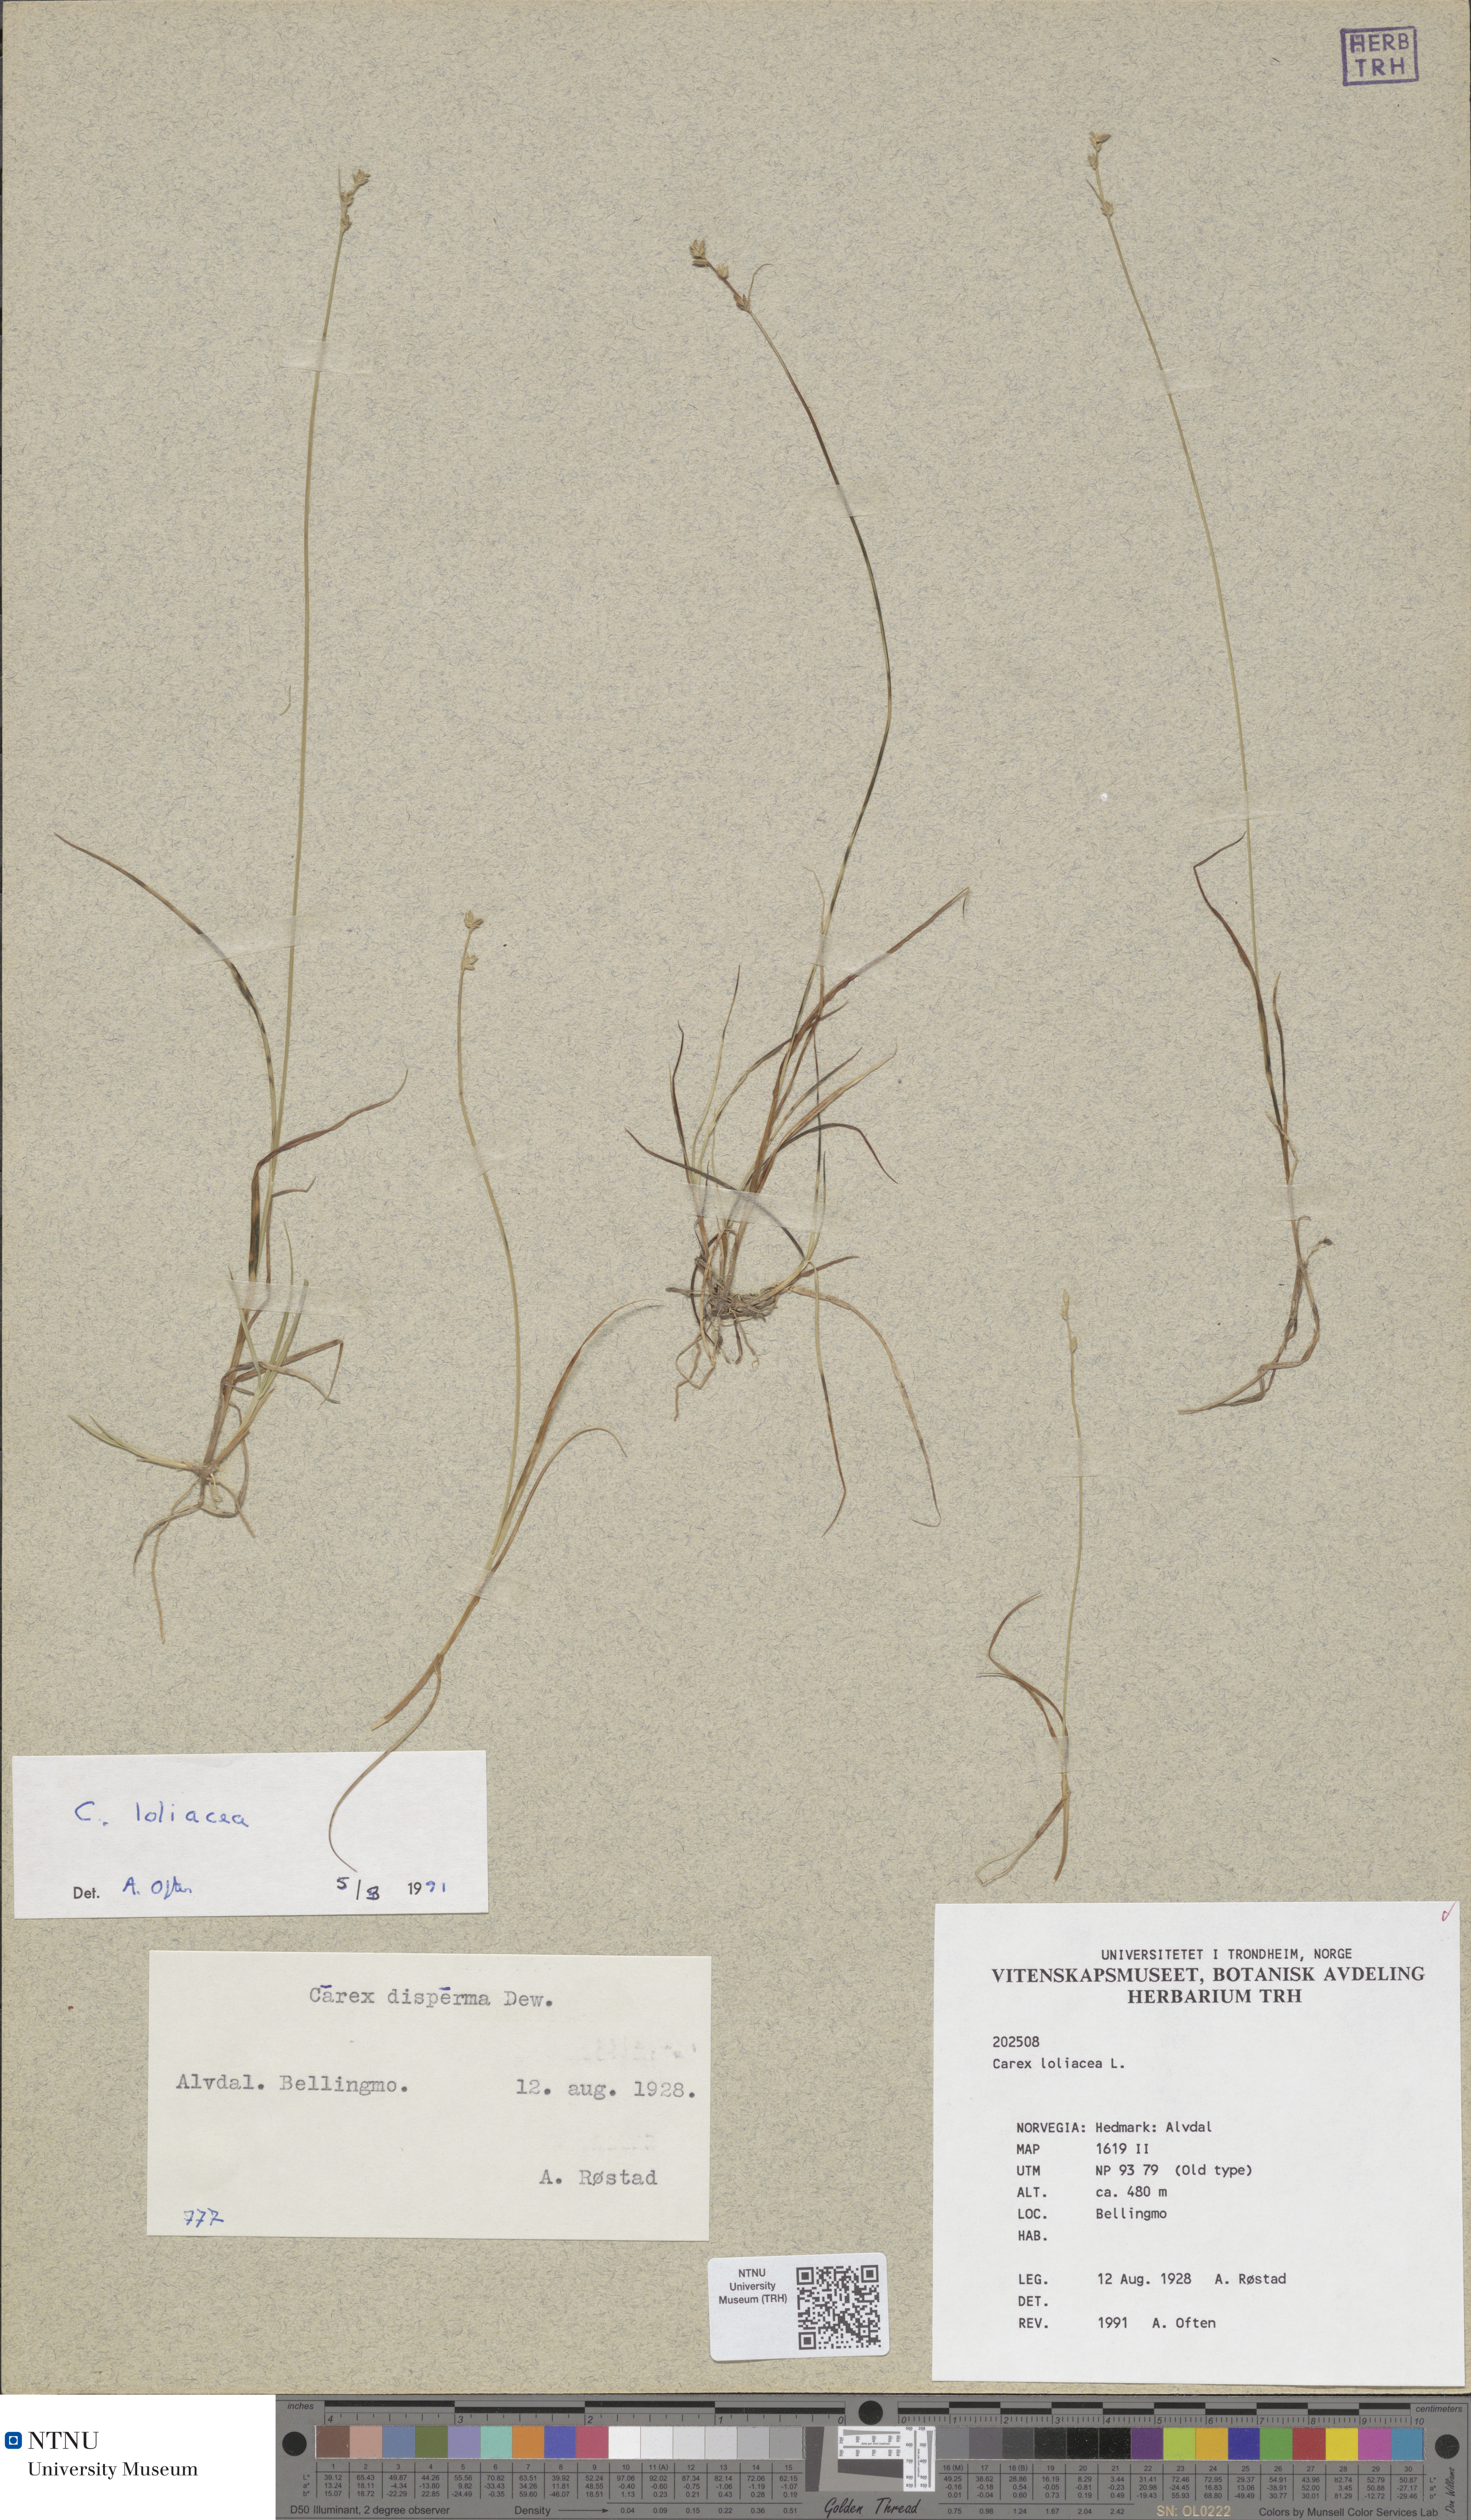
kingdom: Plantae
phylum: Tracheophyta
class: Liliopsida
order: Poales
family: Cyperaceae
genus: Carex
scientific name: Carex loliacea
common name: Ryegrass sedge
